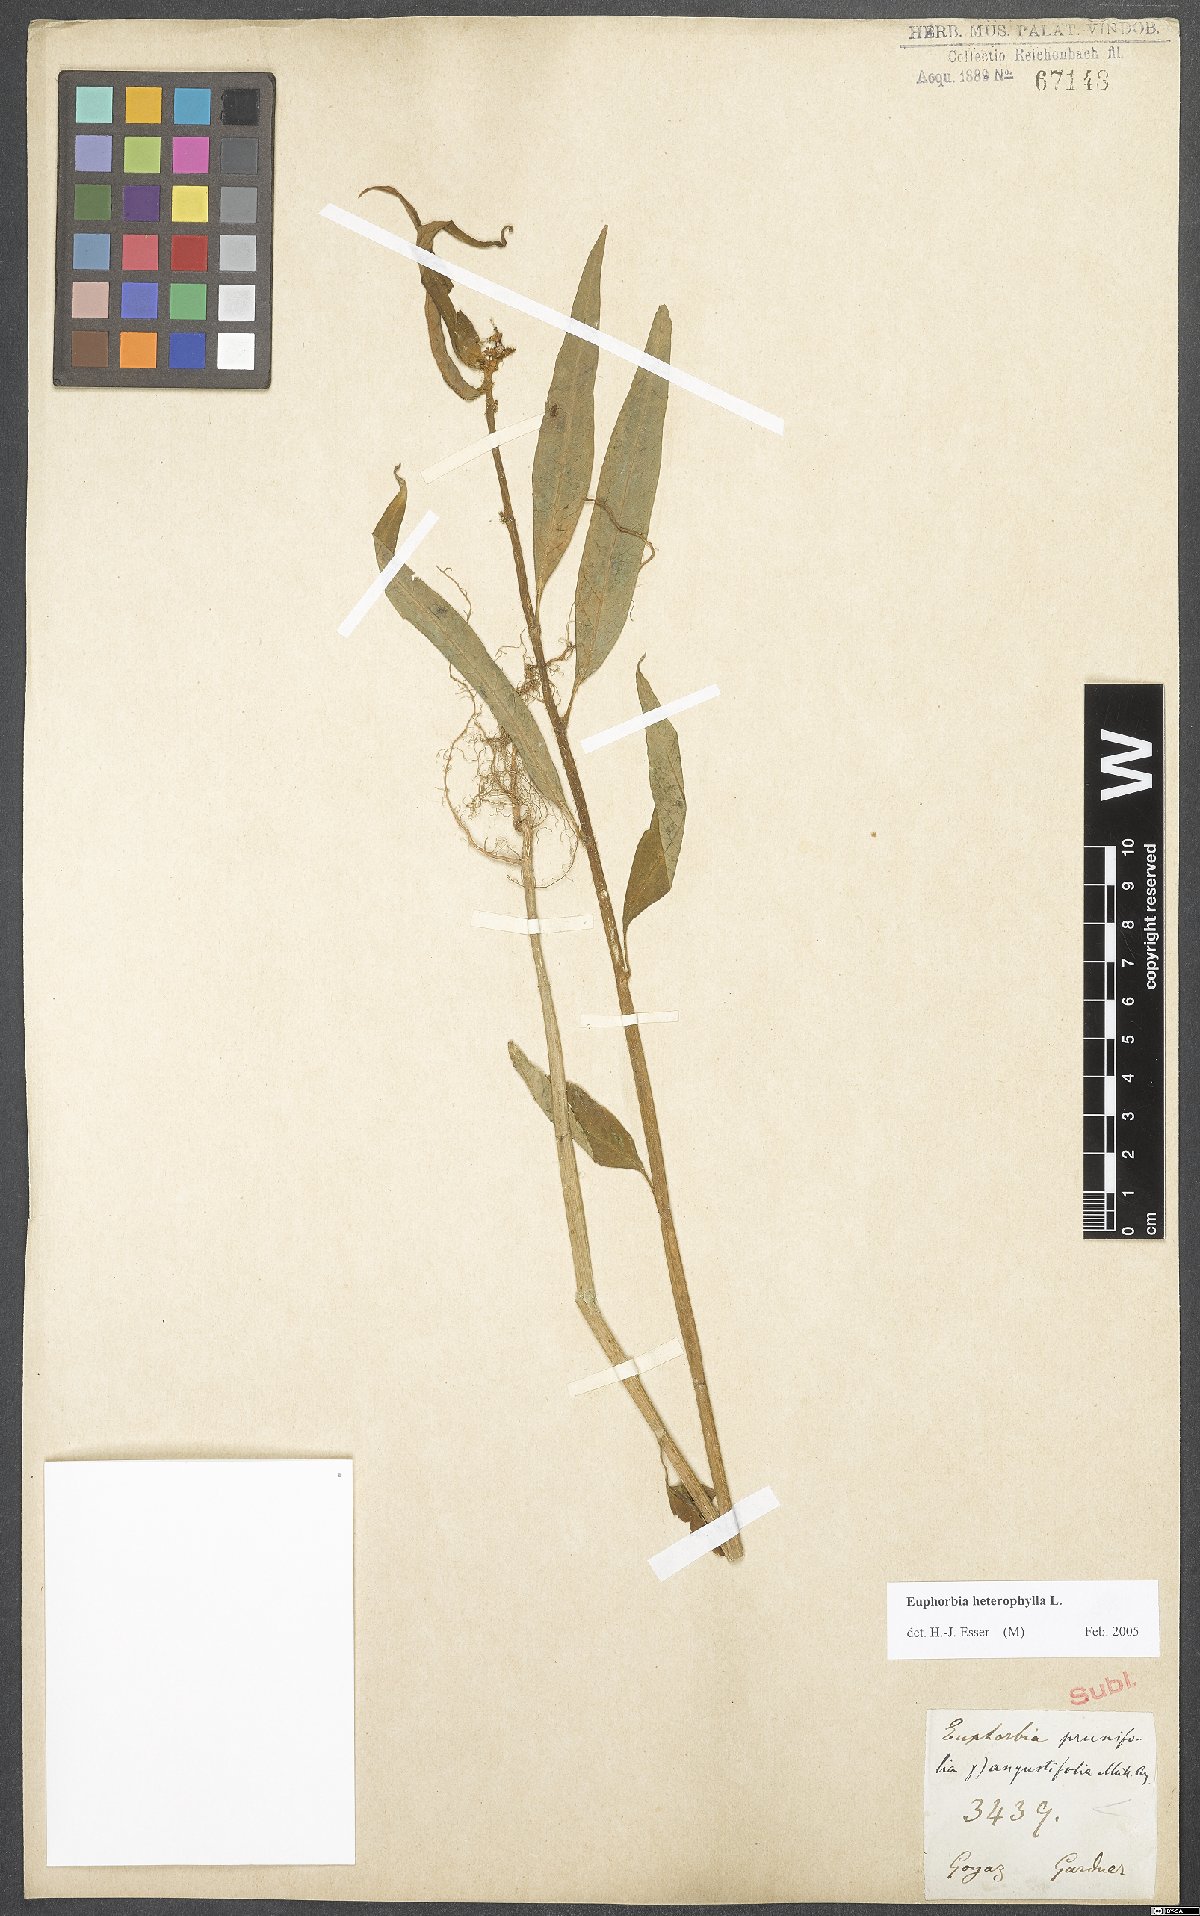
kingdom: Plantae
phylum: Tracheophyta
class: Magnoliopsida
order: Malpighiales
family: Euphorbiaceae
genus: Euphorbia
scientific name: Euphorbia heterophylla
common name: Mexican fireplant
